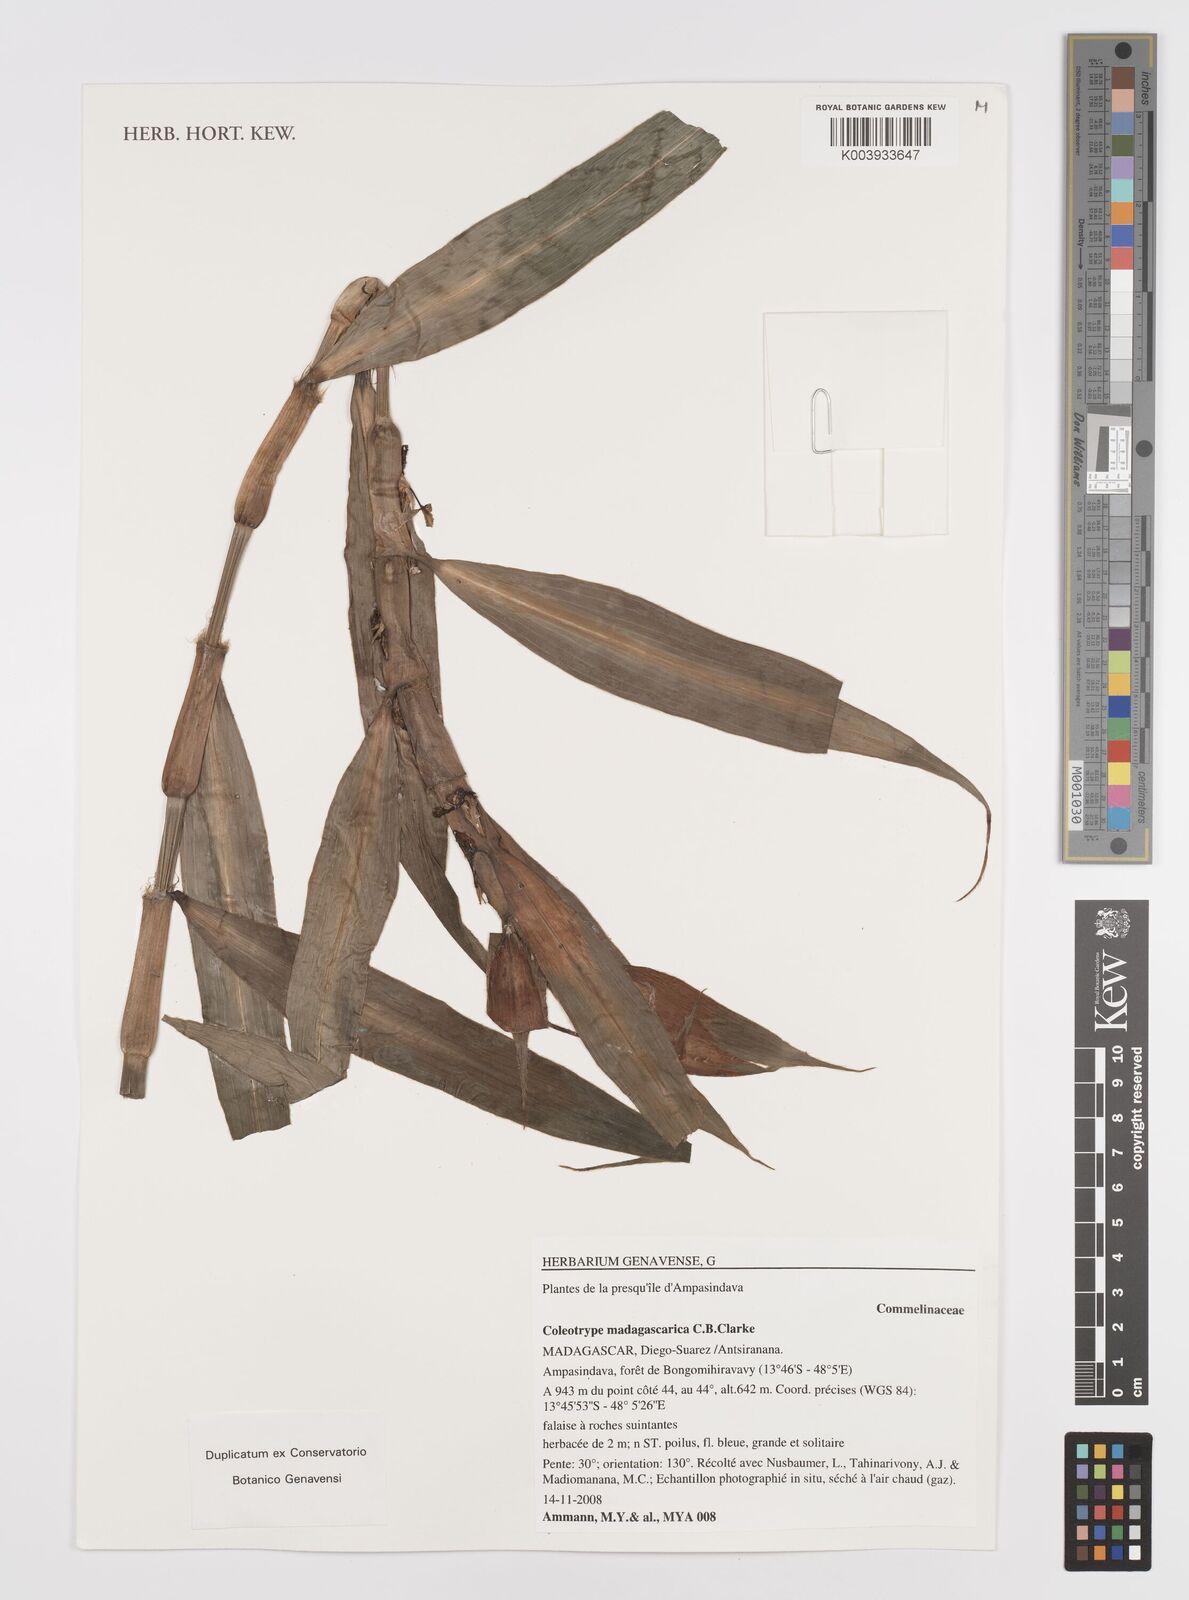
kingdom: Plantae
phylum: Tracheophyta
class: Liliopsida
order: Commelinales
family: Commelinaceae
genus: Coleotrype
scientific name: Coleotrype madagascarica
